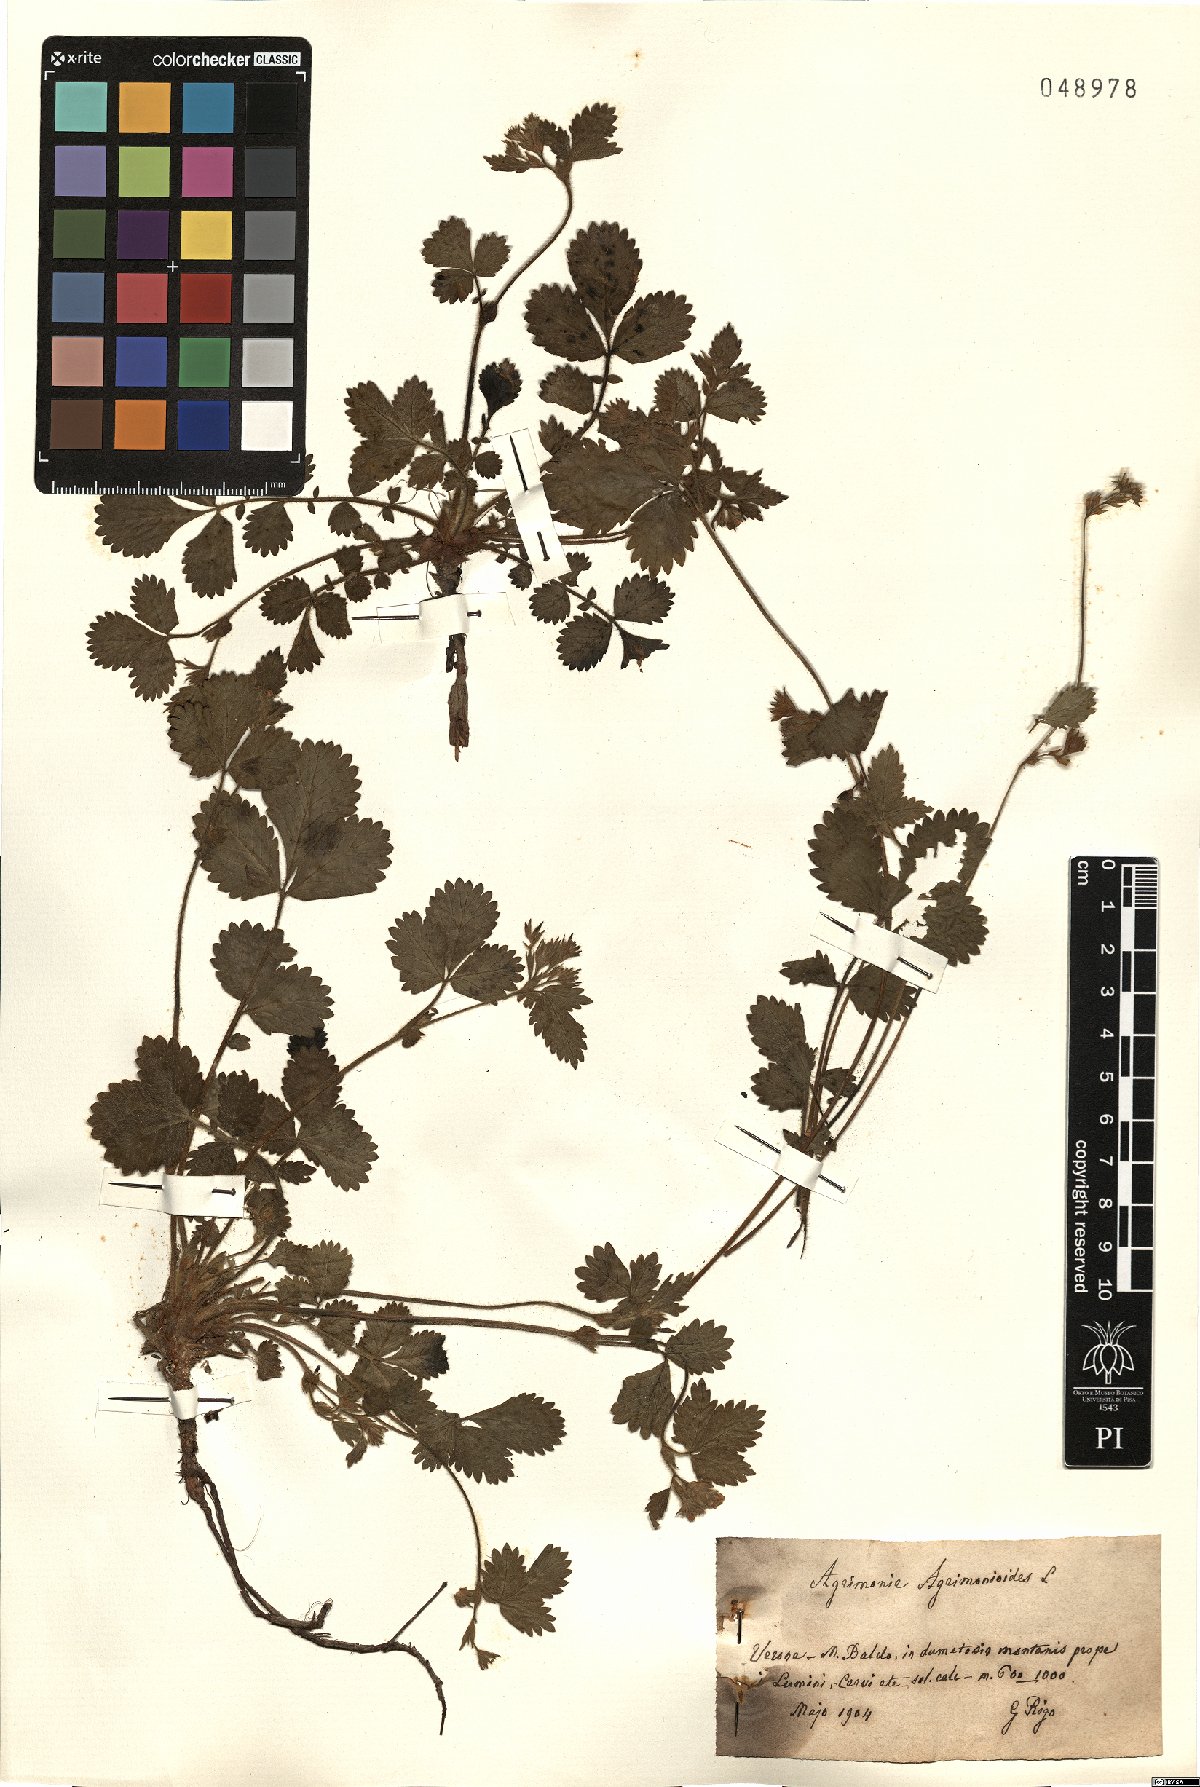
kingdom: Plantae
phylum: Tracheophyta
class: Magnoliopsida
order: Rosales
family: Rosaceae
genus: Aremonia
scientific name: Aremonia agrimonoides
